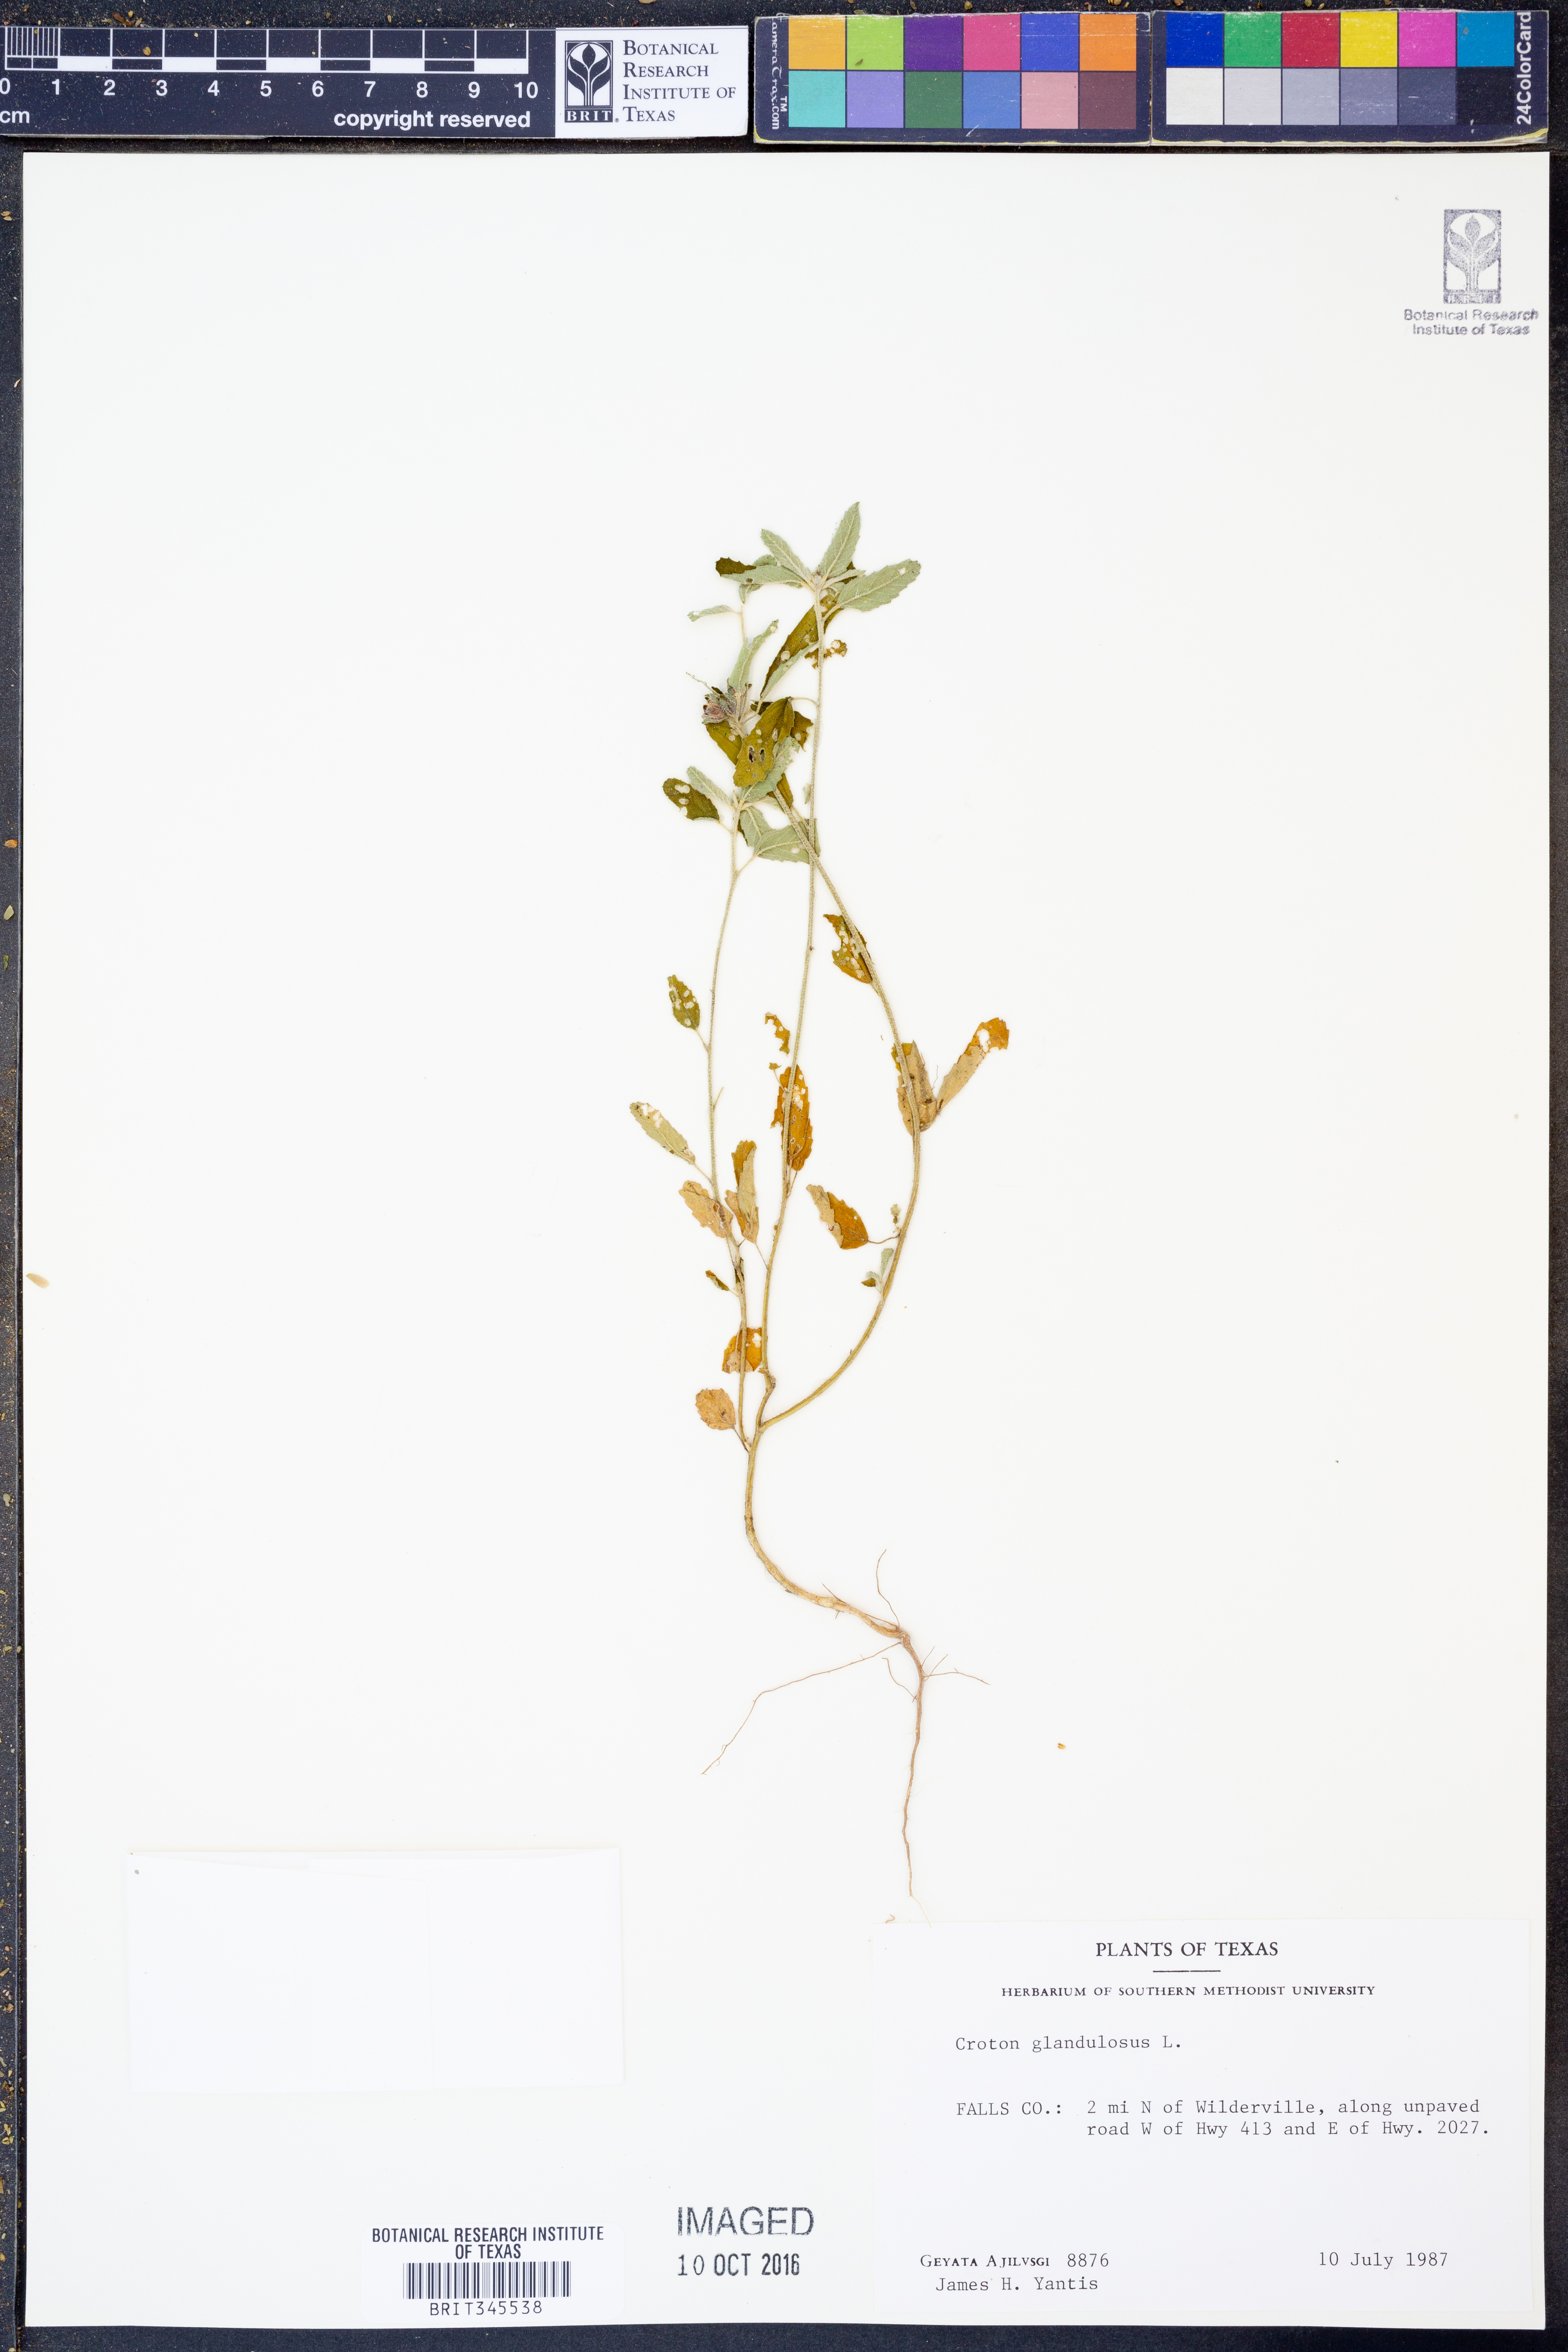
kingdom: Plantae
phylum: Tracheophyta
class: Magnoliopsida
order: Malpighiales
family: Euphorbiaceae
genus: Croton
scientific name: Croton glandulosus
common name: Tropic croton
